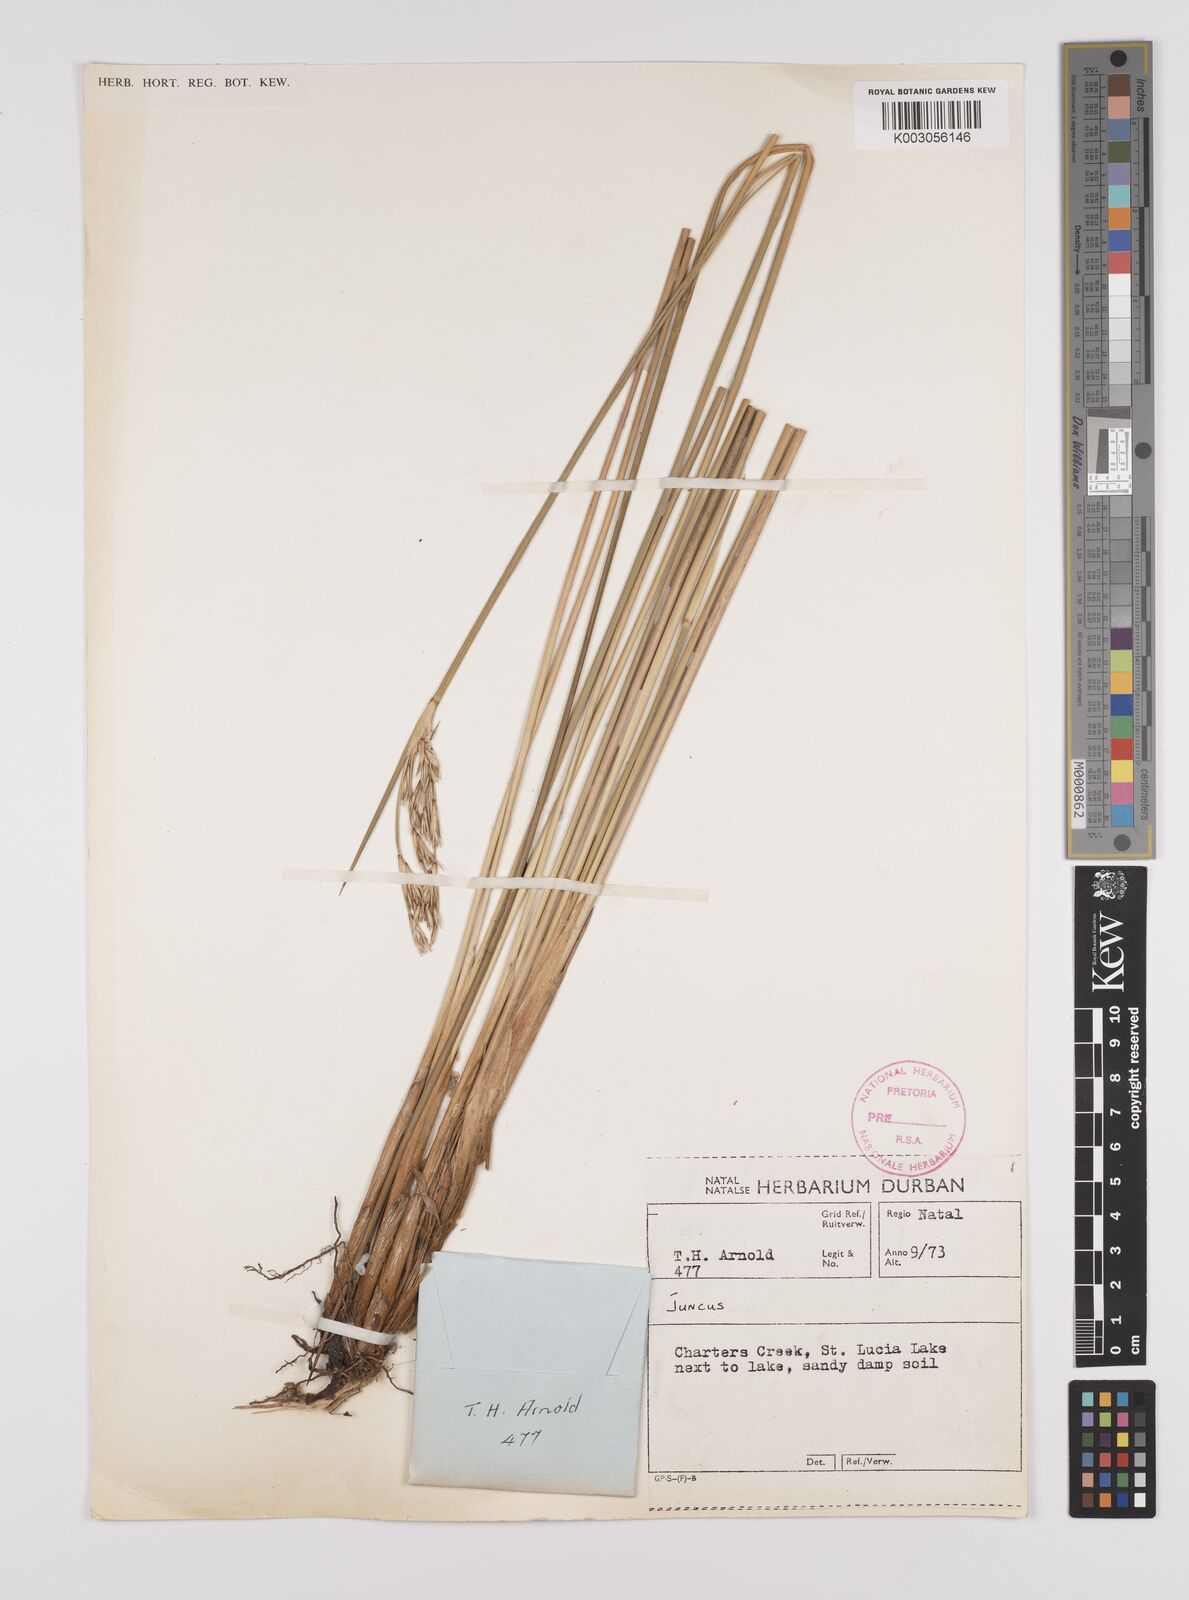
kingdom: Plantae
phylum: Tracheophyta
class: Liliopsida
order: Poales
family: Juncaceae
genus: Juncus
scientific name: Juncus
